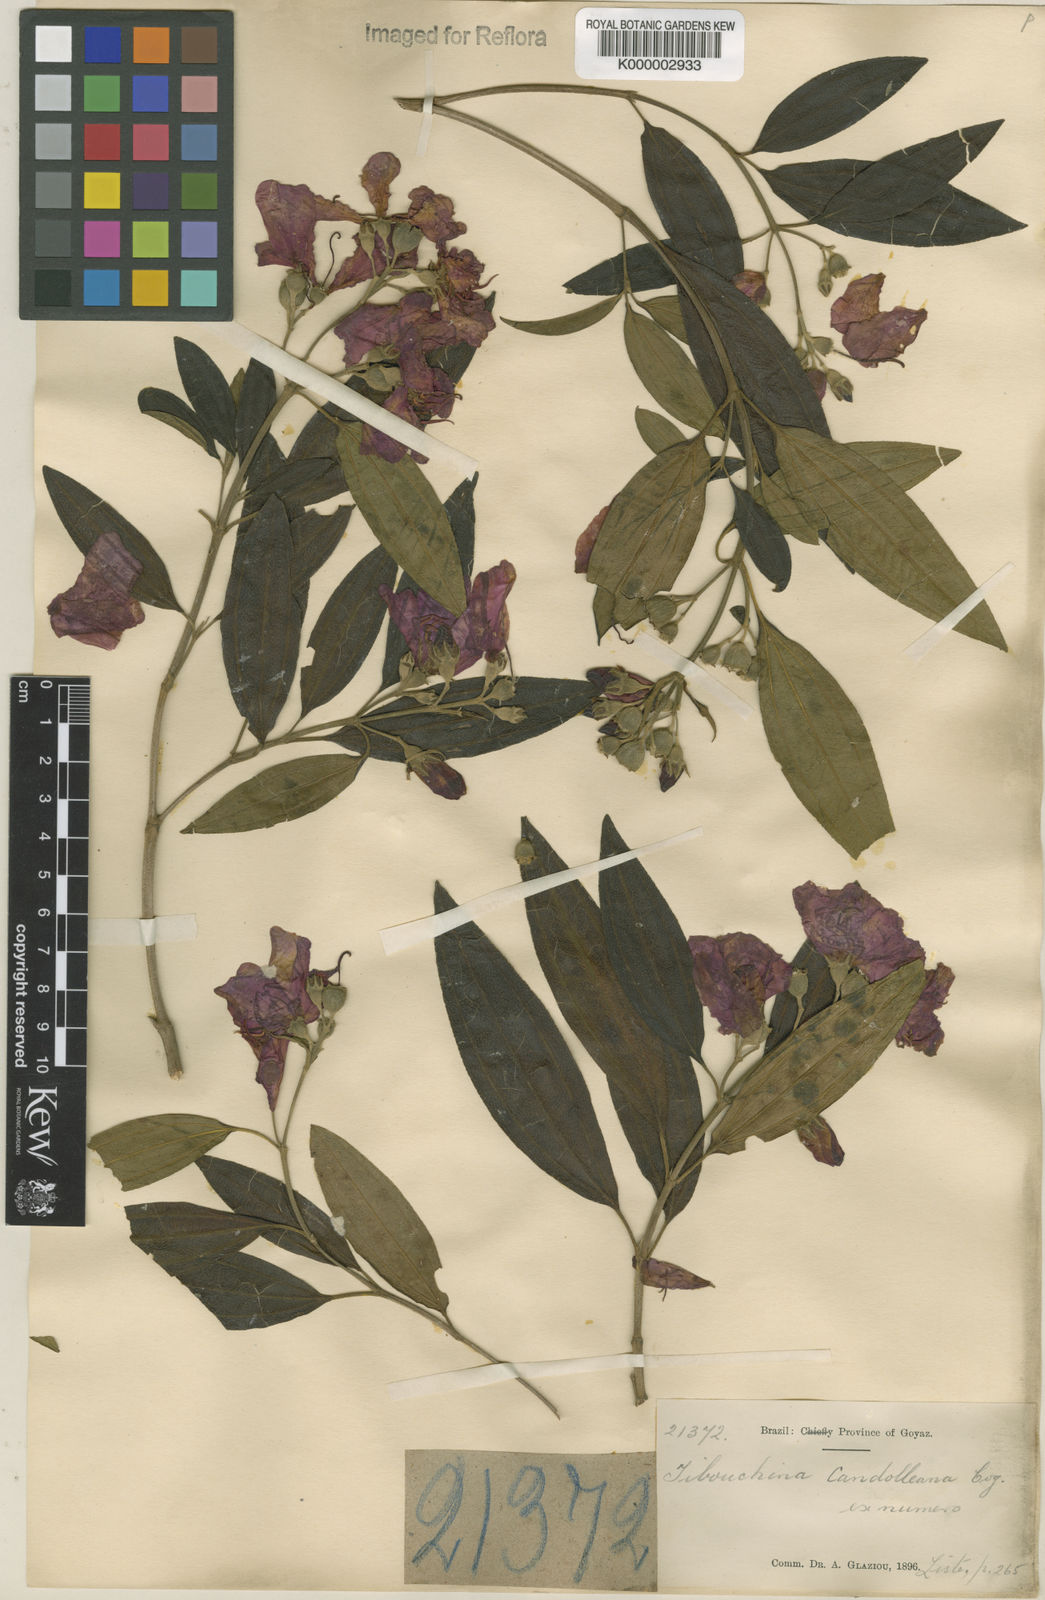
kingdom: Plantae
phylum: Tracheophyta
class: Magnoliopsida
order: Myrtales
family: Melastomataceae
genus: Pleroma
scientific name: Pleroma candolleanum
